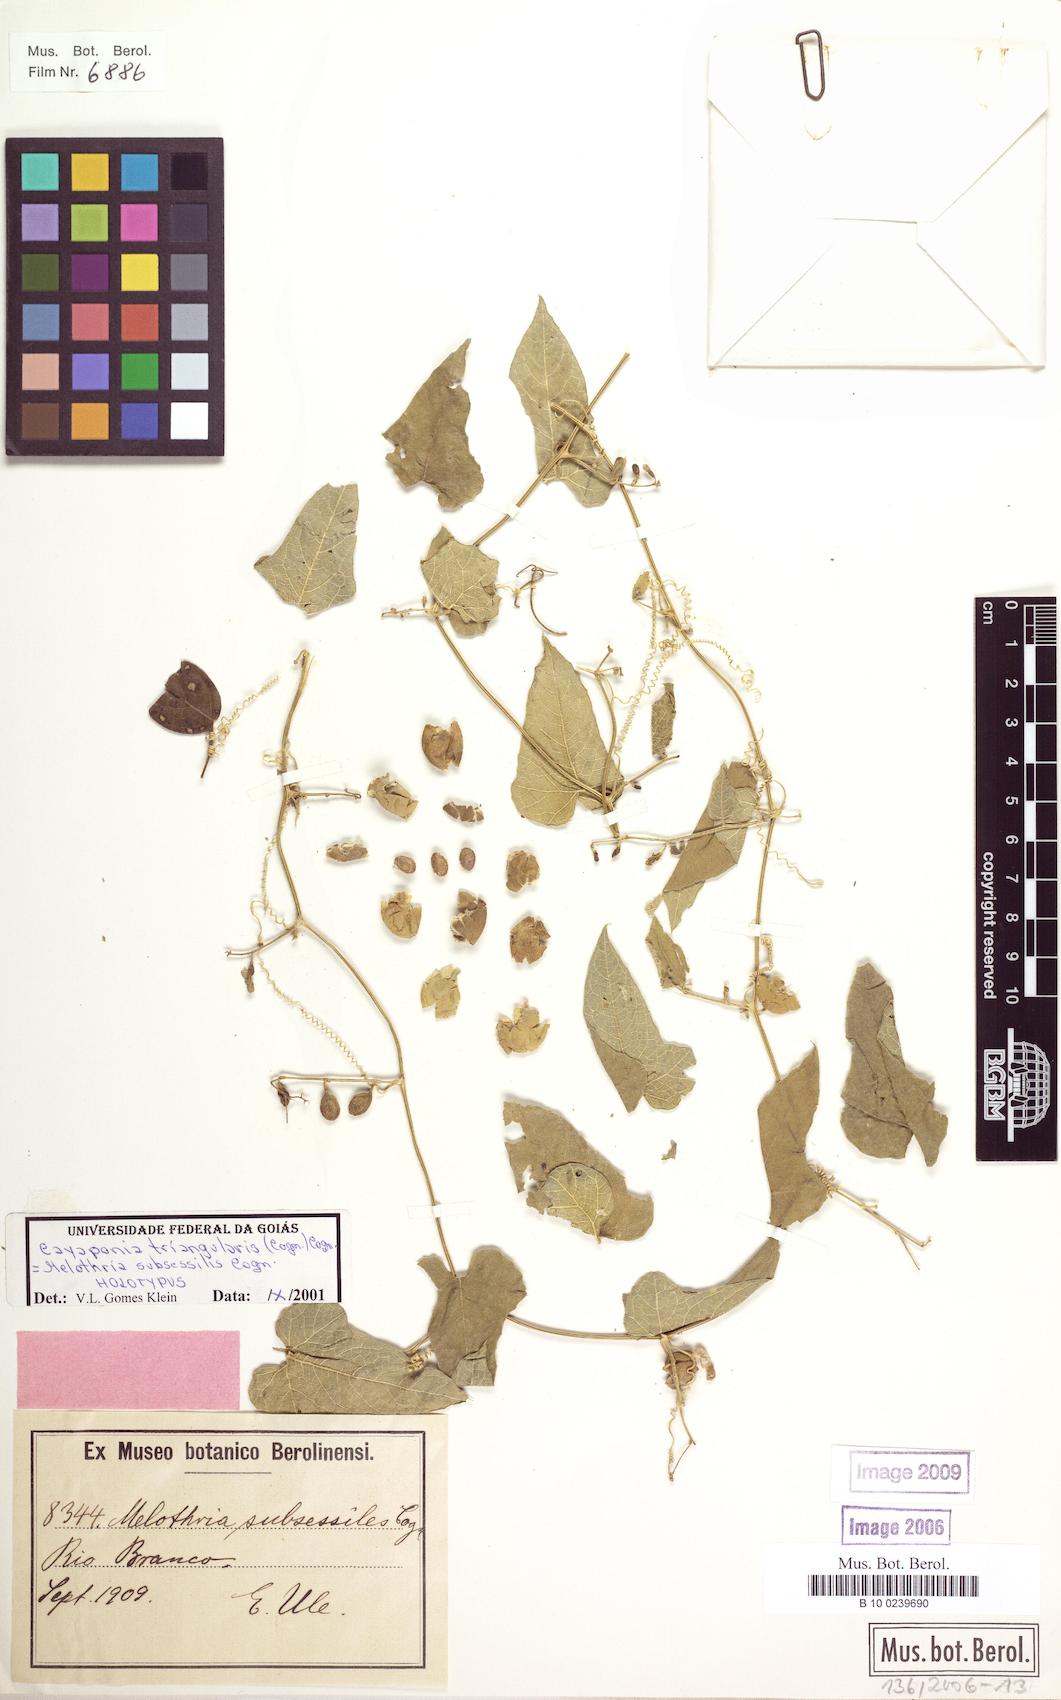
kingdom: Plantae
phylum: Tracheophyta
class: Magnoliopsida
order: Cucurbitales
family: Cucurbitaceae
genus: Cayaponia
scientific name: Cayaponia triangularis
